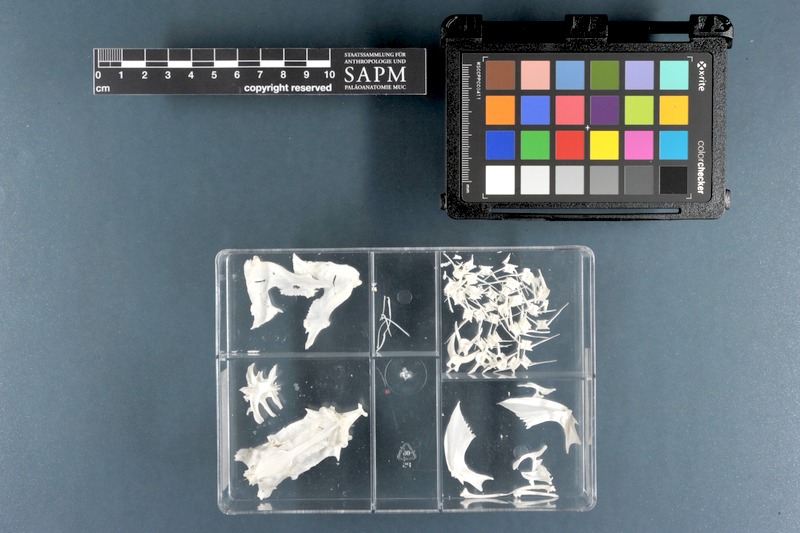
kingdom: Animalia
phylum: Chordata
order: Siluriformes
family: Plotosidae
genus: Plotosus
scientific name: Plotosus lineatus
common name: Striped eel catfish
